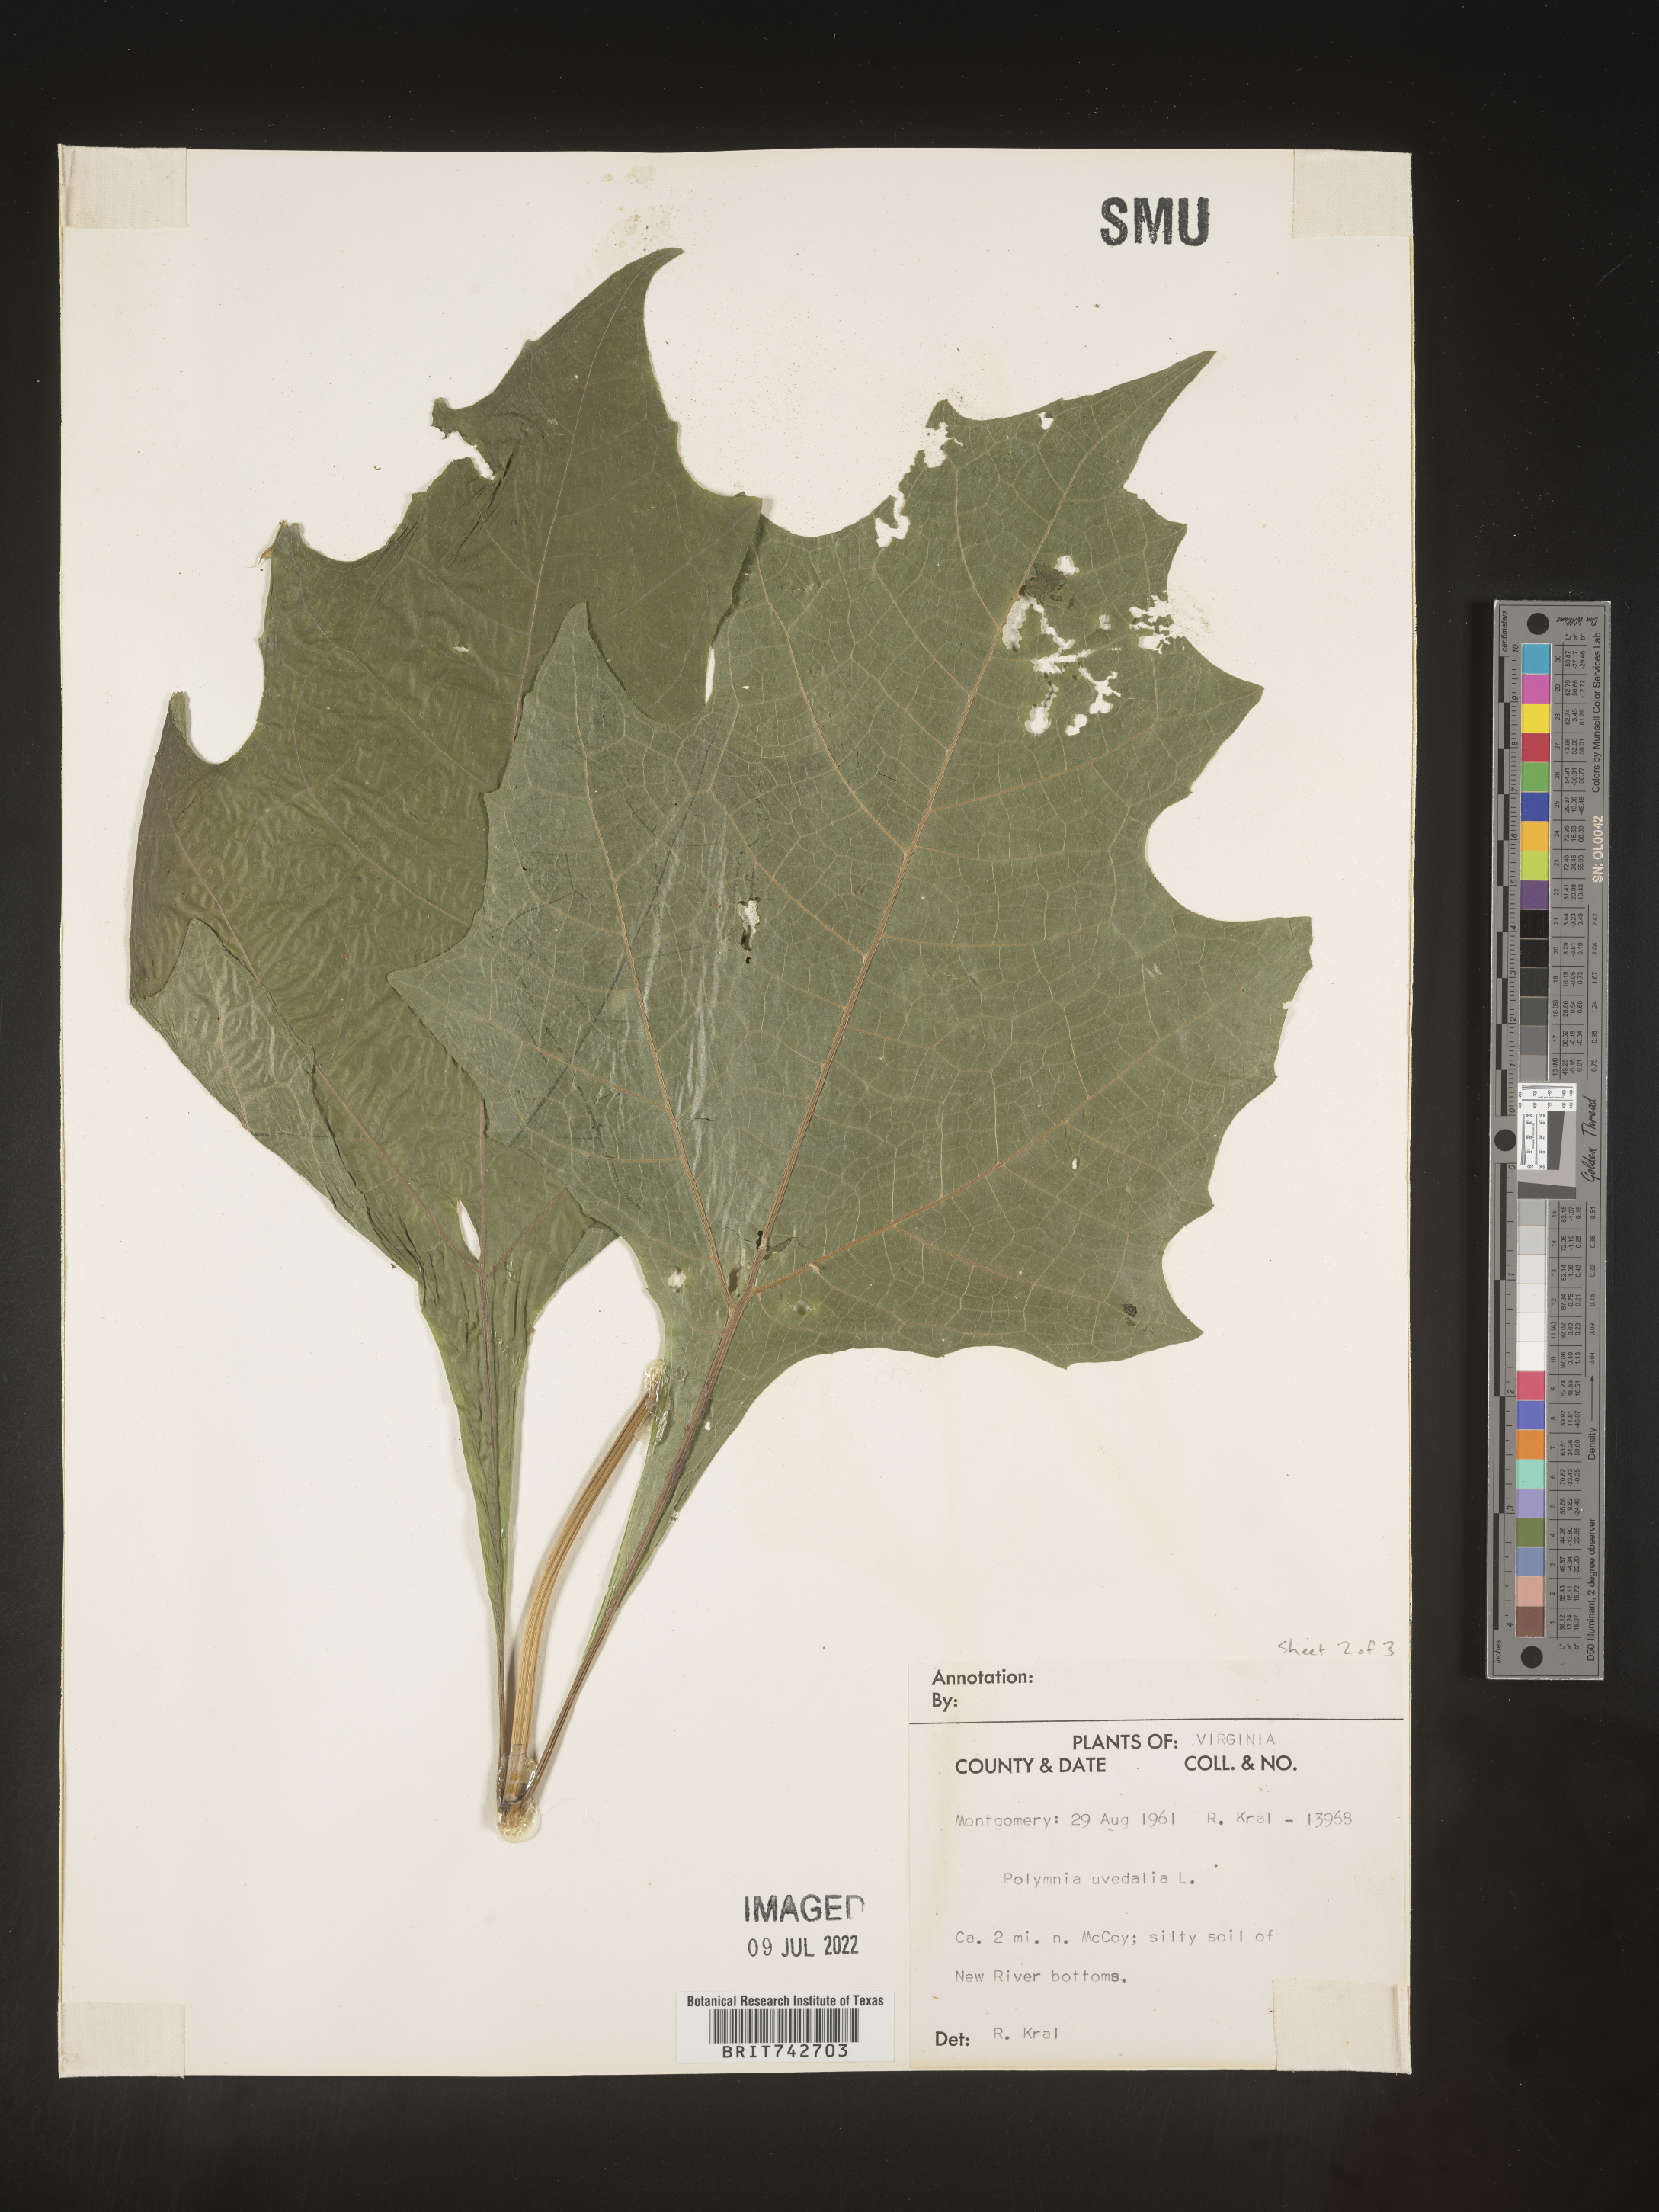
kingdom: Plantae
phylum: Tracheophyta
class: Magnoliopsida
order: Asterales
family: Asteraceae
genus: Smallanthus
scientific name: Smallanthus uvedalia
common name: Bear's-foot
